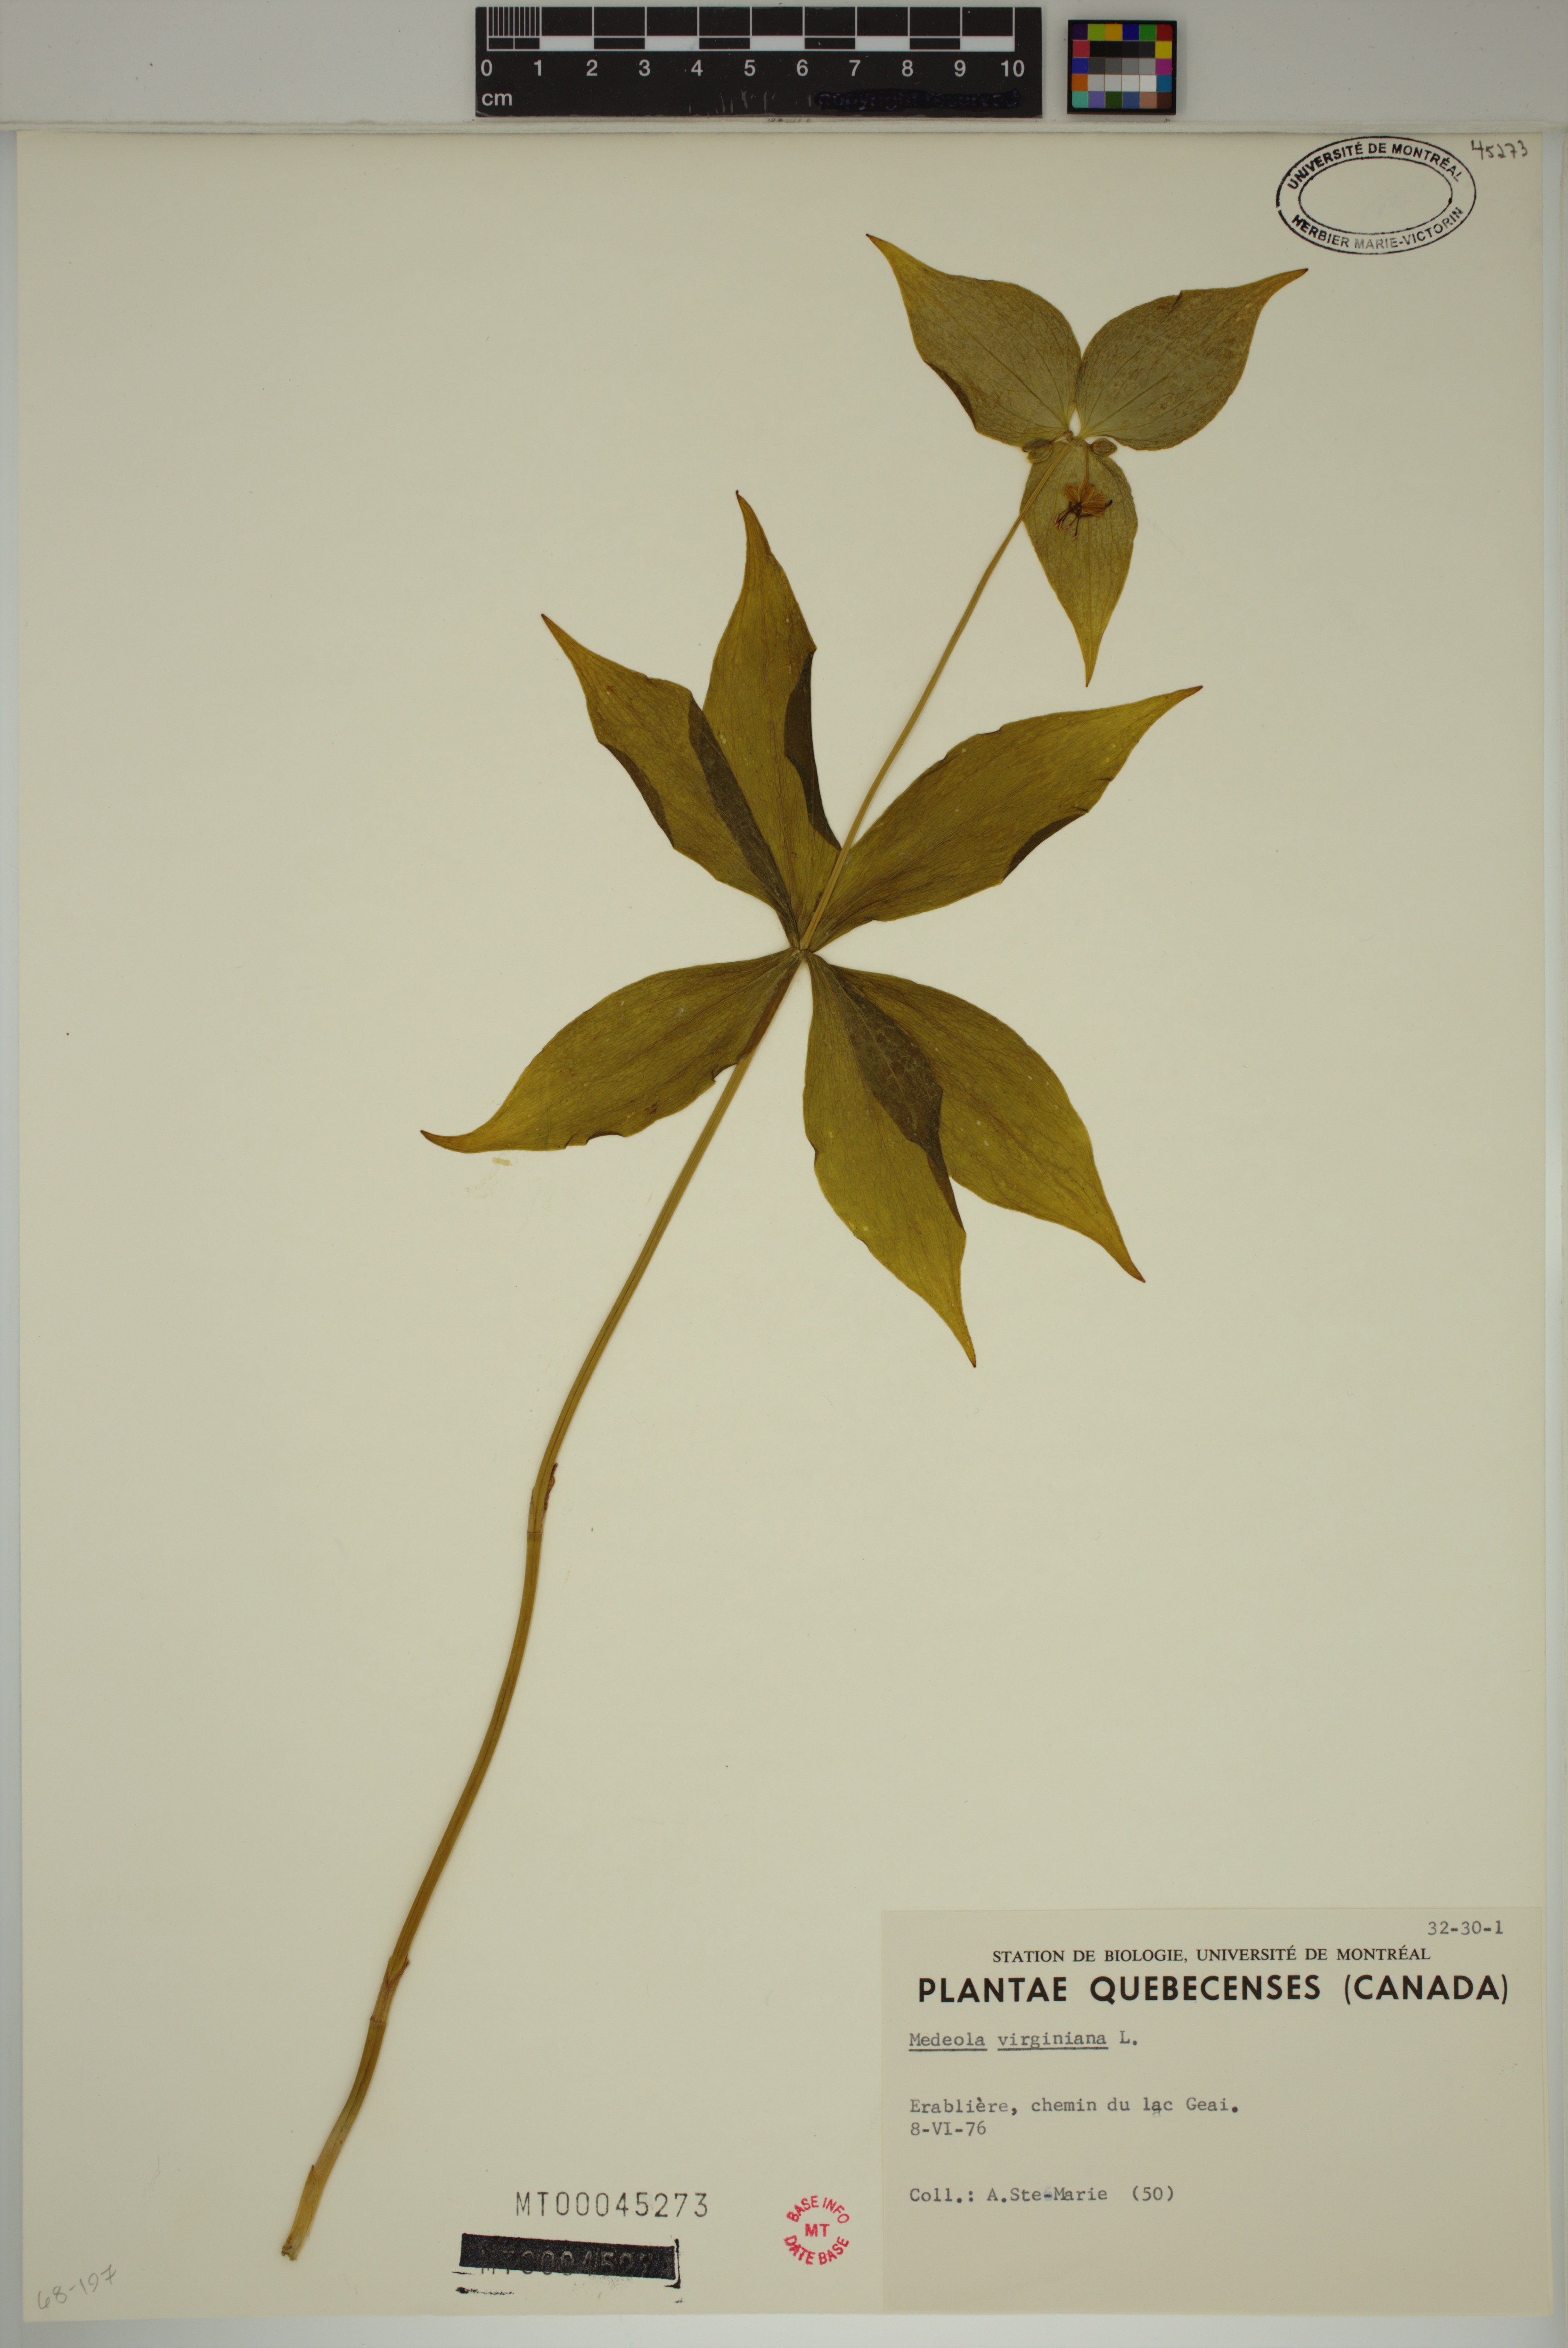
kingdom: Plantae
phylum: Tracheophyta
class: Liliopsida
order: Liliales
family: Liliaceae
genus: Medeola
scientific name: Medeola virginiana
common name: Indian cucumber-root
